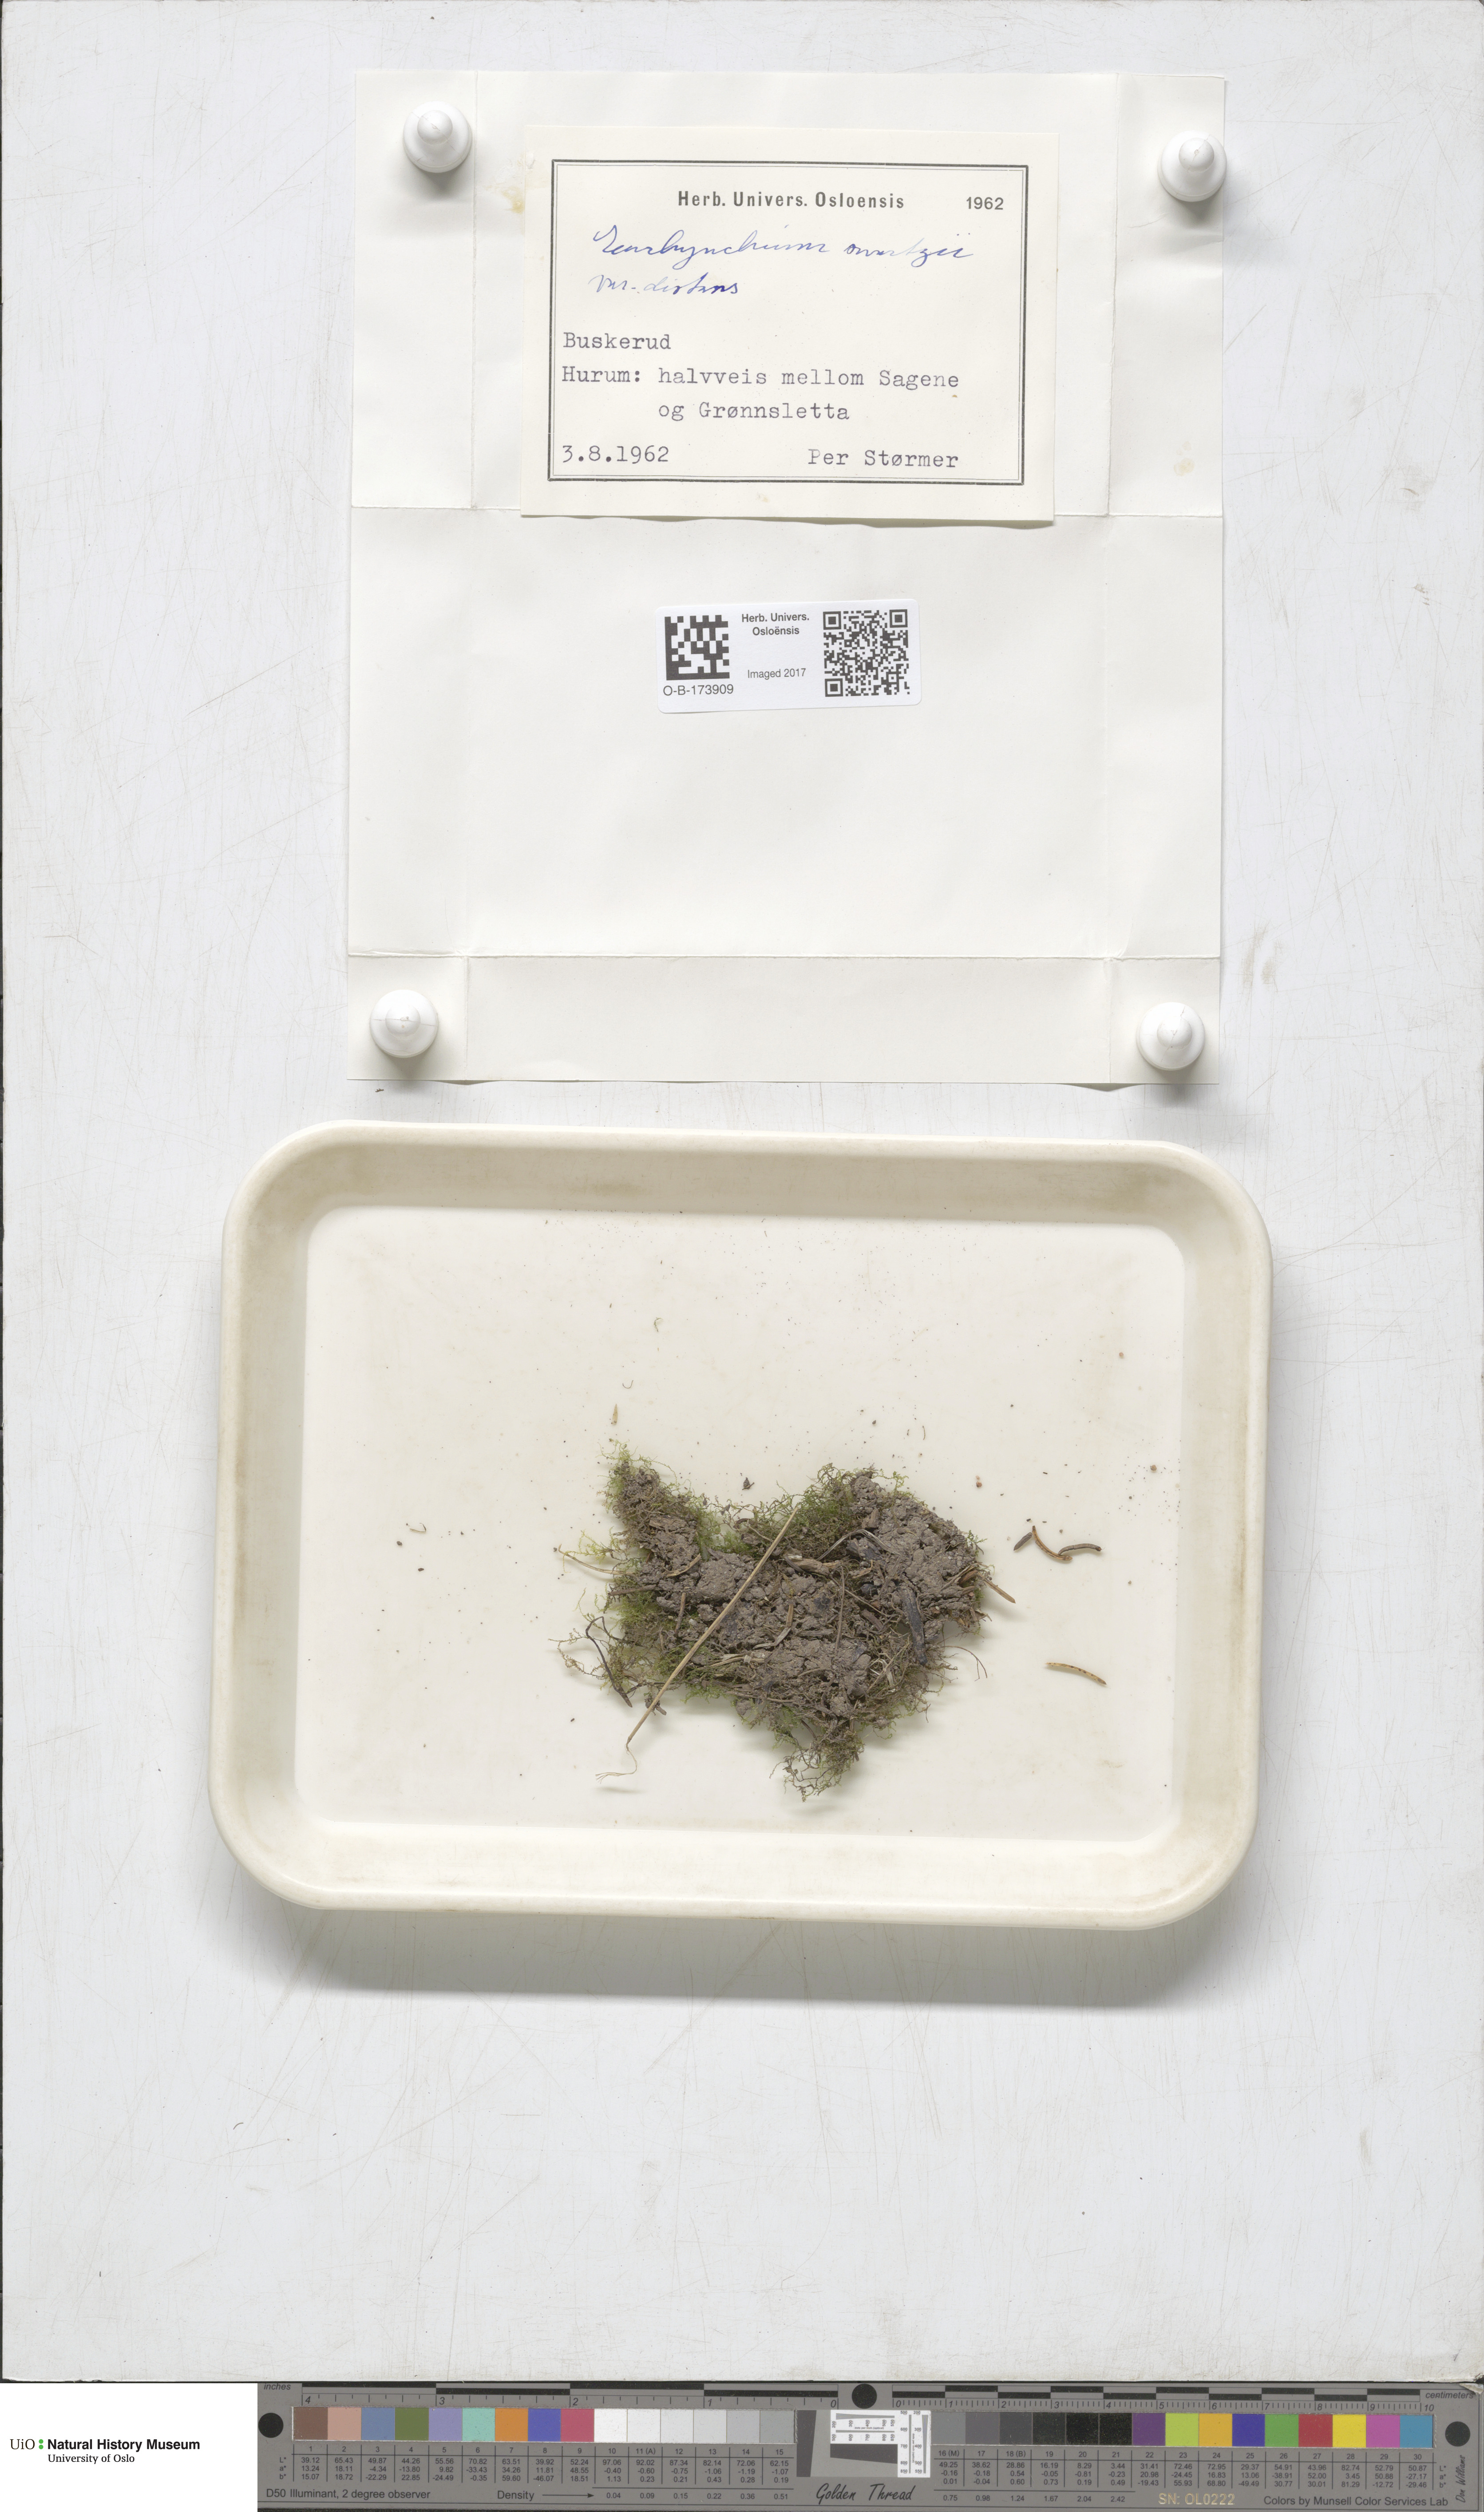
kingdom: Plantae
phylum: Bryophyta
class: Bryopsida
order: Hypnales
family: Brachytheciaceae
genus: Kindbergia
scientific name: Kindbergia praelonga
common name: Slender beaked moss
